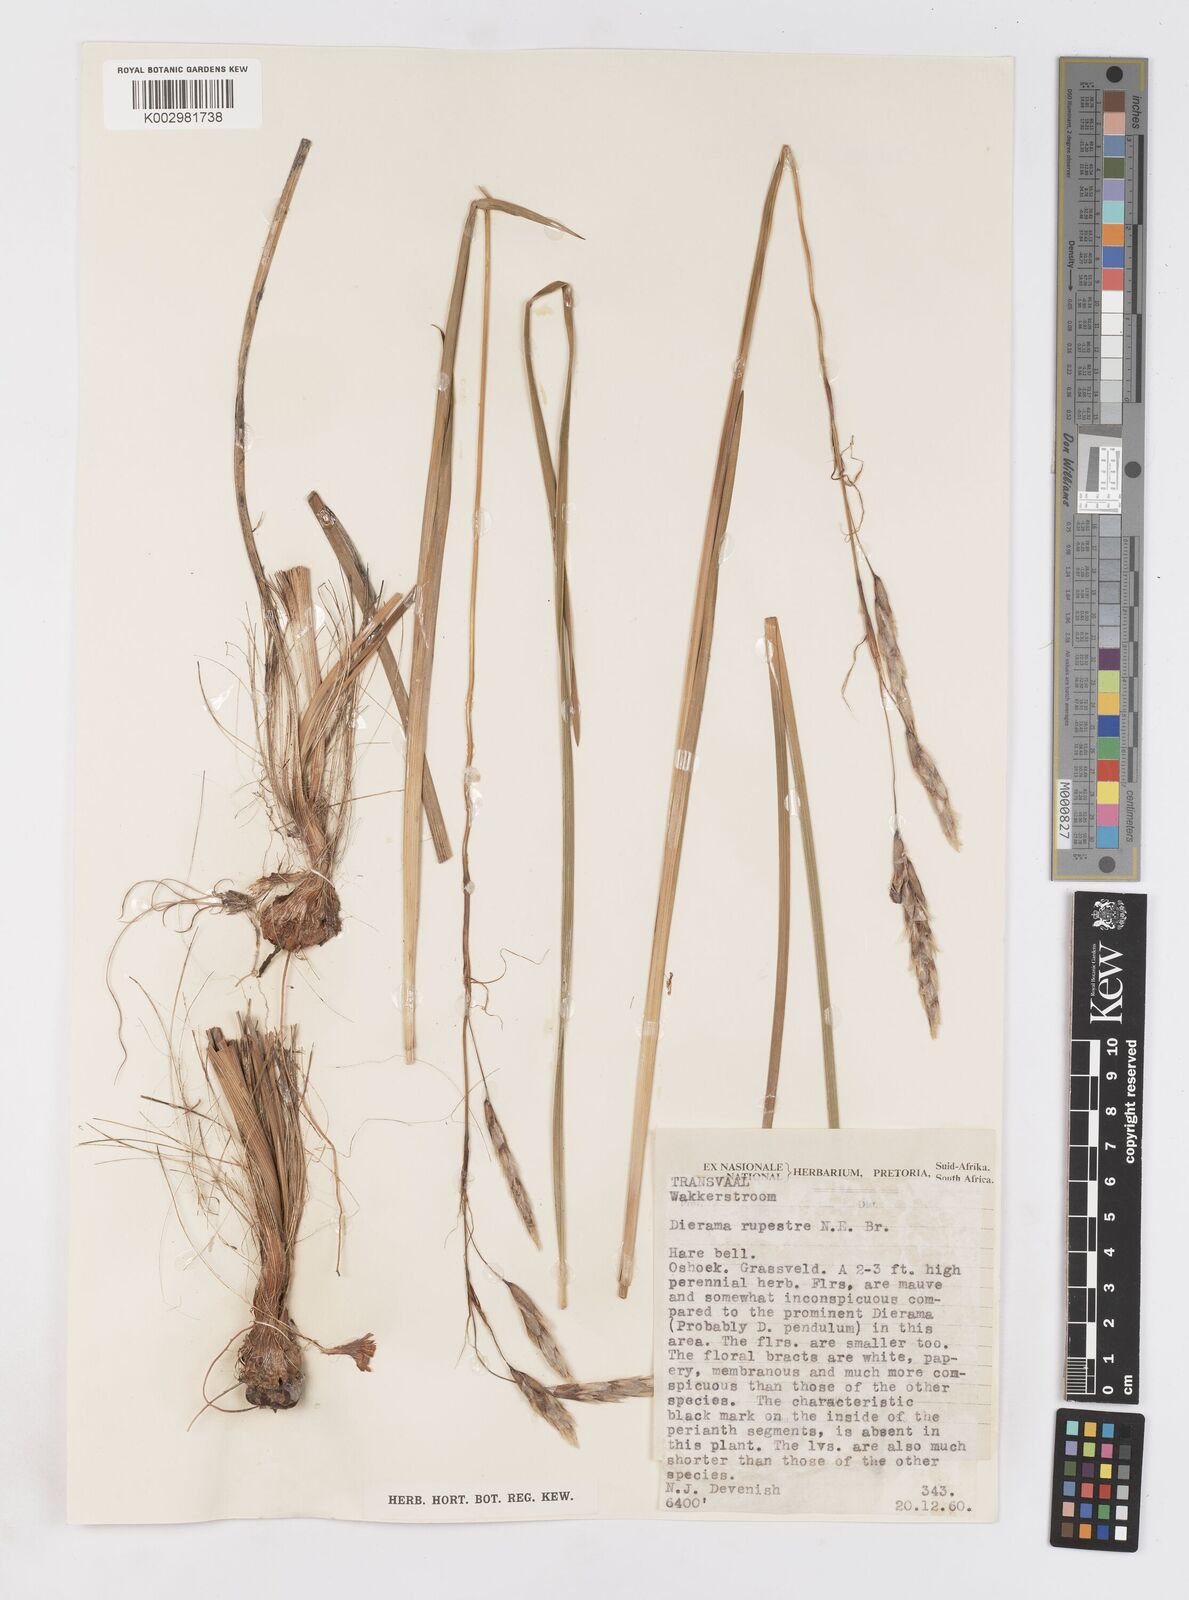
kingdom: Plantae
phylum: Tracheophyta
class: Liliopsida
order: Asparagales
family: Iridaceae
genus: Dierama
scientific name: Dierama insigne
